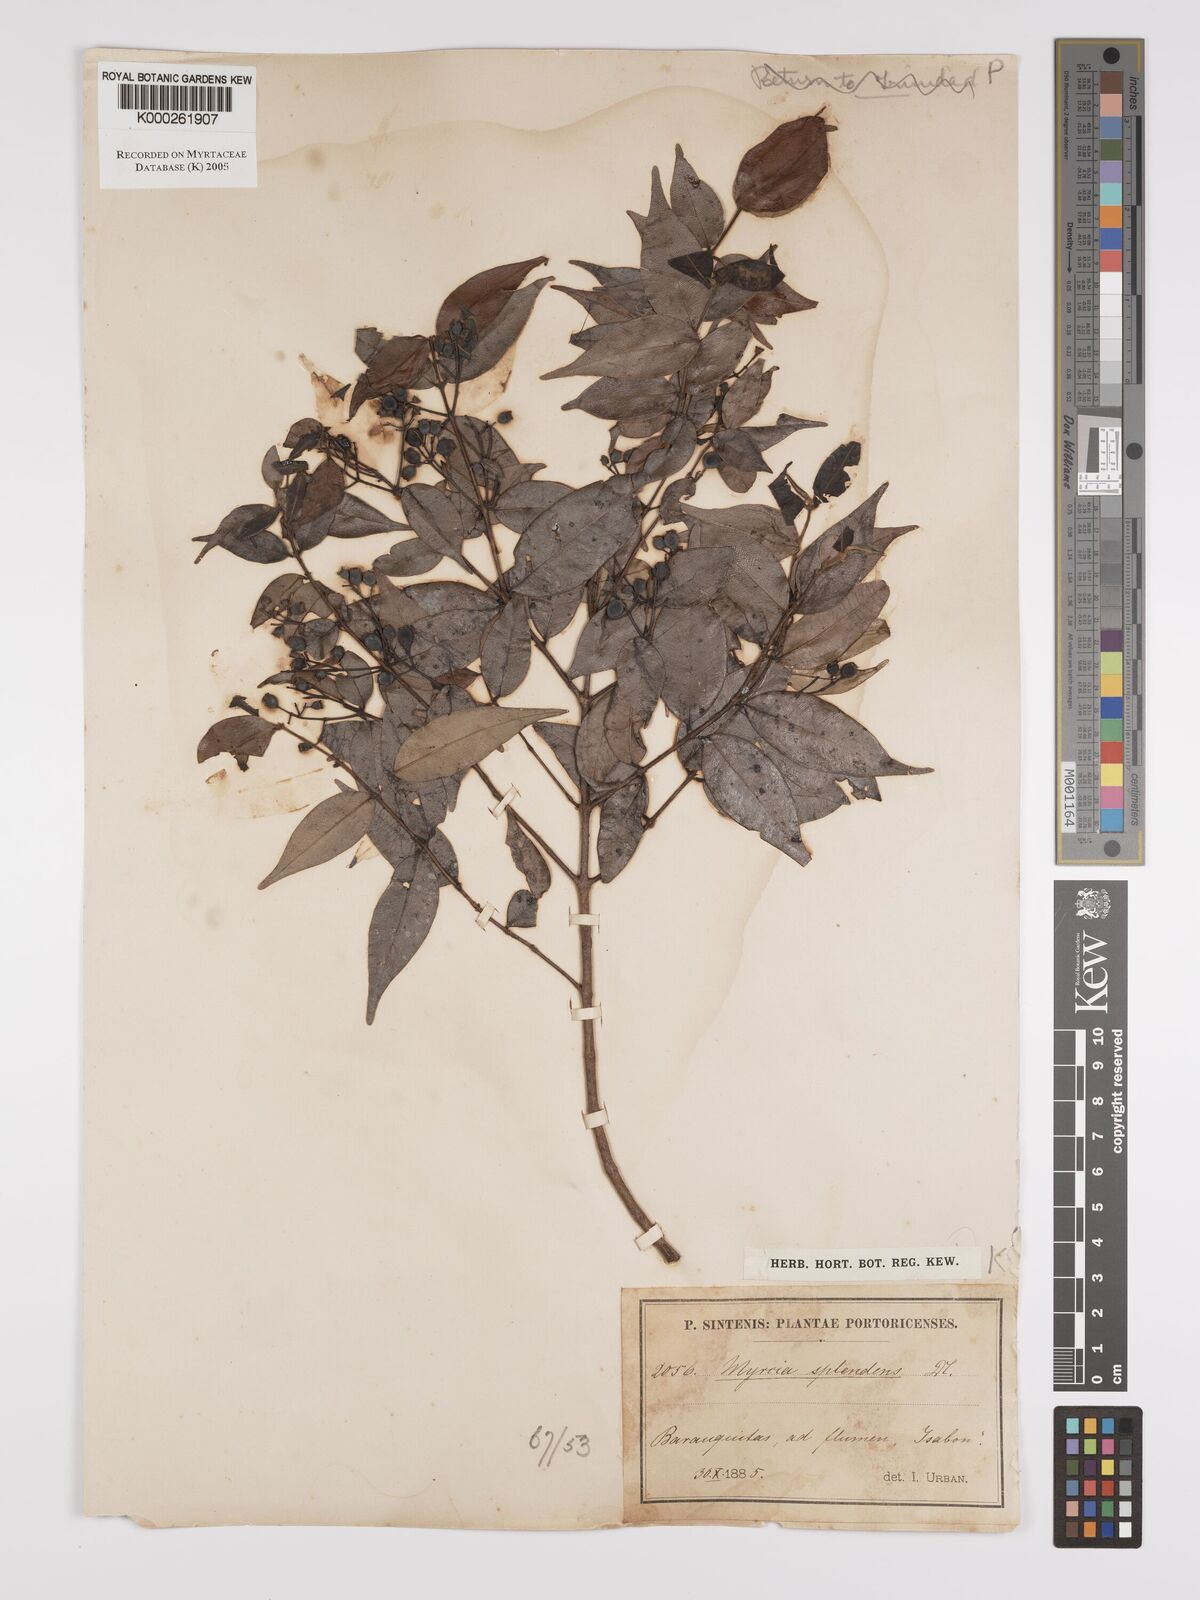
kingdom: Plantae
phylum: Tracheophyta
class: Magnoliopsida
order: Myrtales
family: Myrtaceae
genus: Myrcia
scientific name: Myrcia splendens
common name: Surinam cherry
